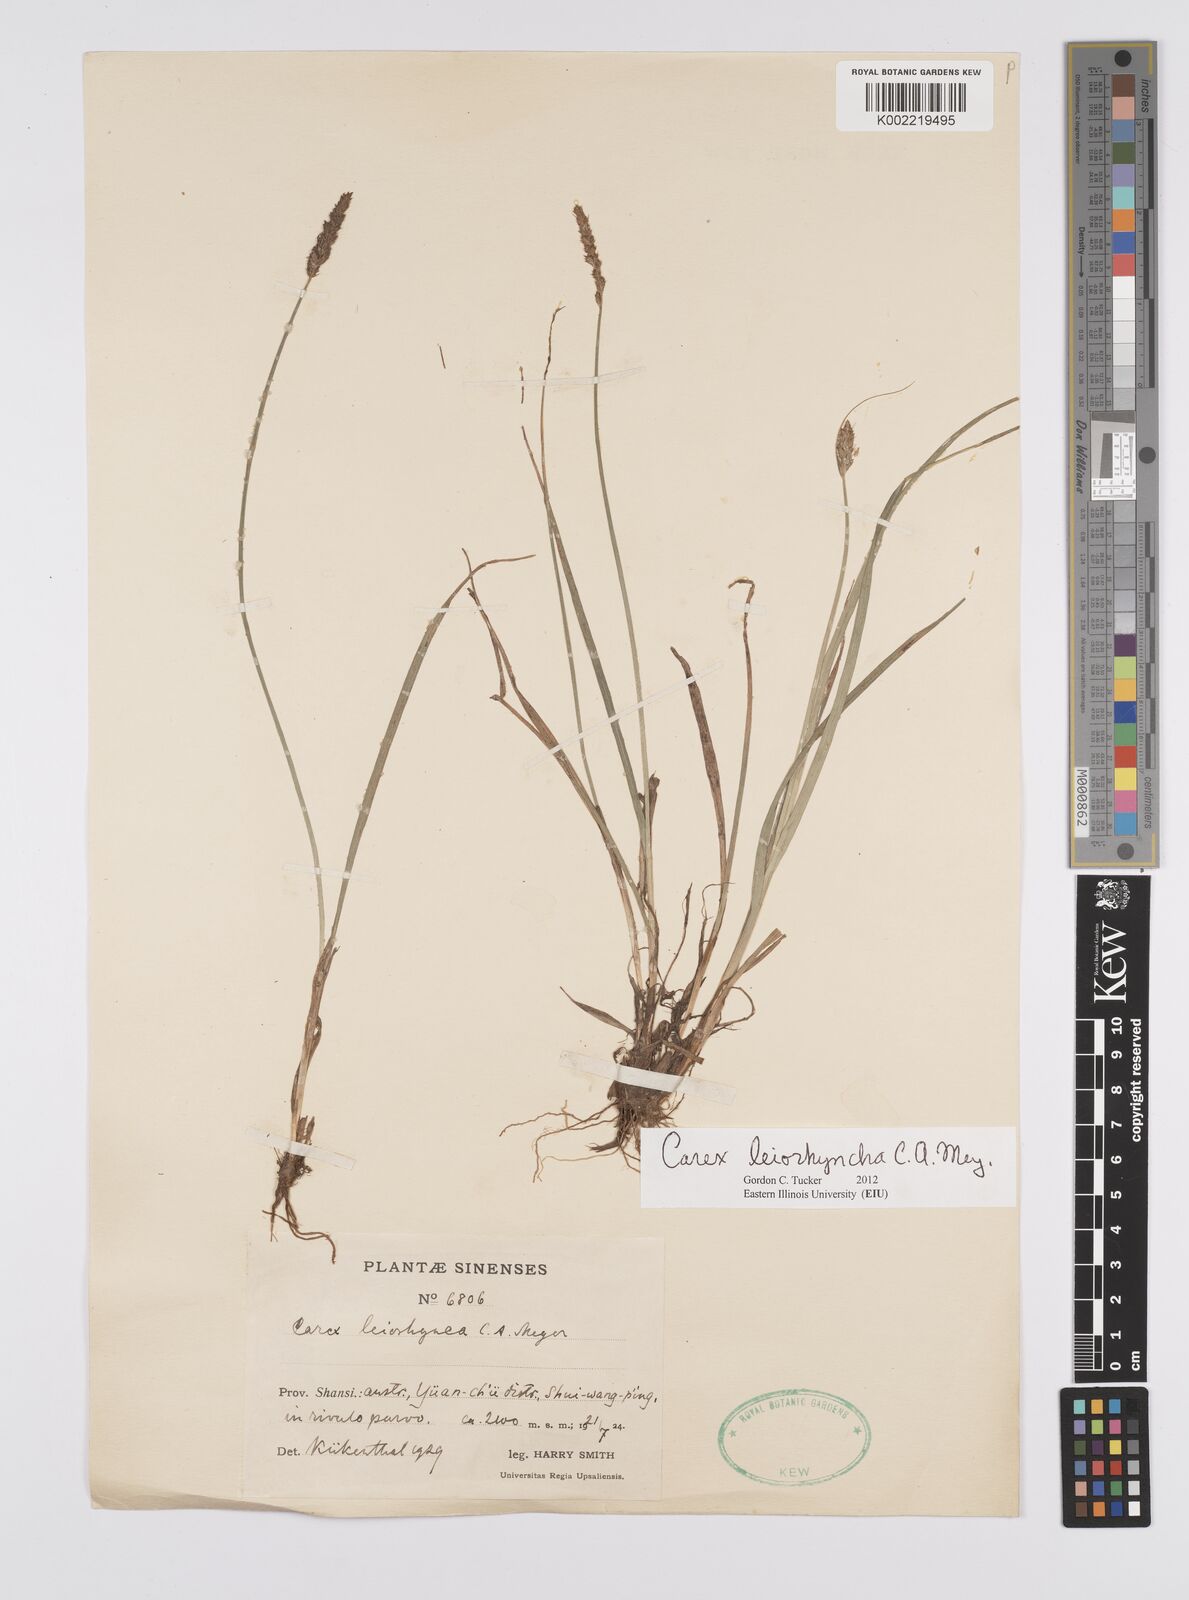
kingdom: Plantae
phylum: Tracheophyta
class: Liliopsida
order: Poales
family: Cyperaceae
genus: Carex
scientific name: Carex leiorhyncha
